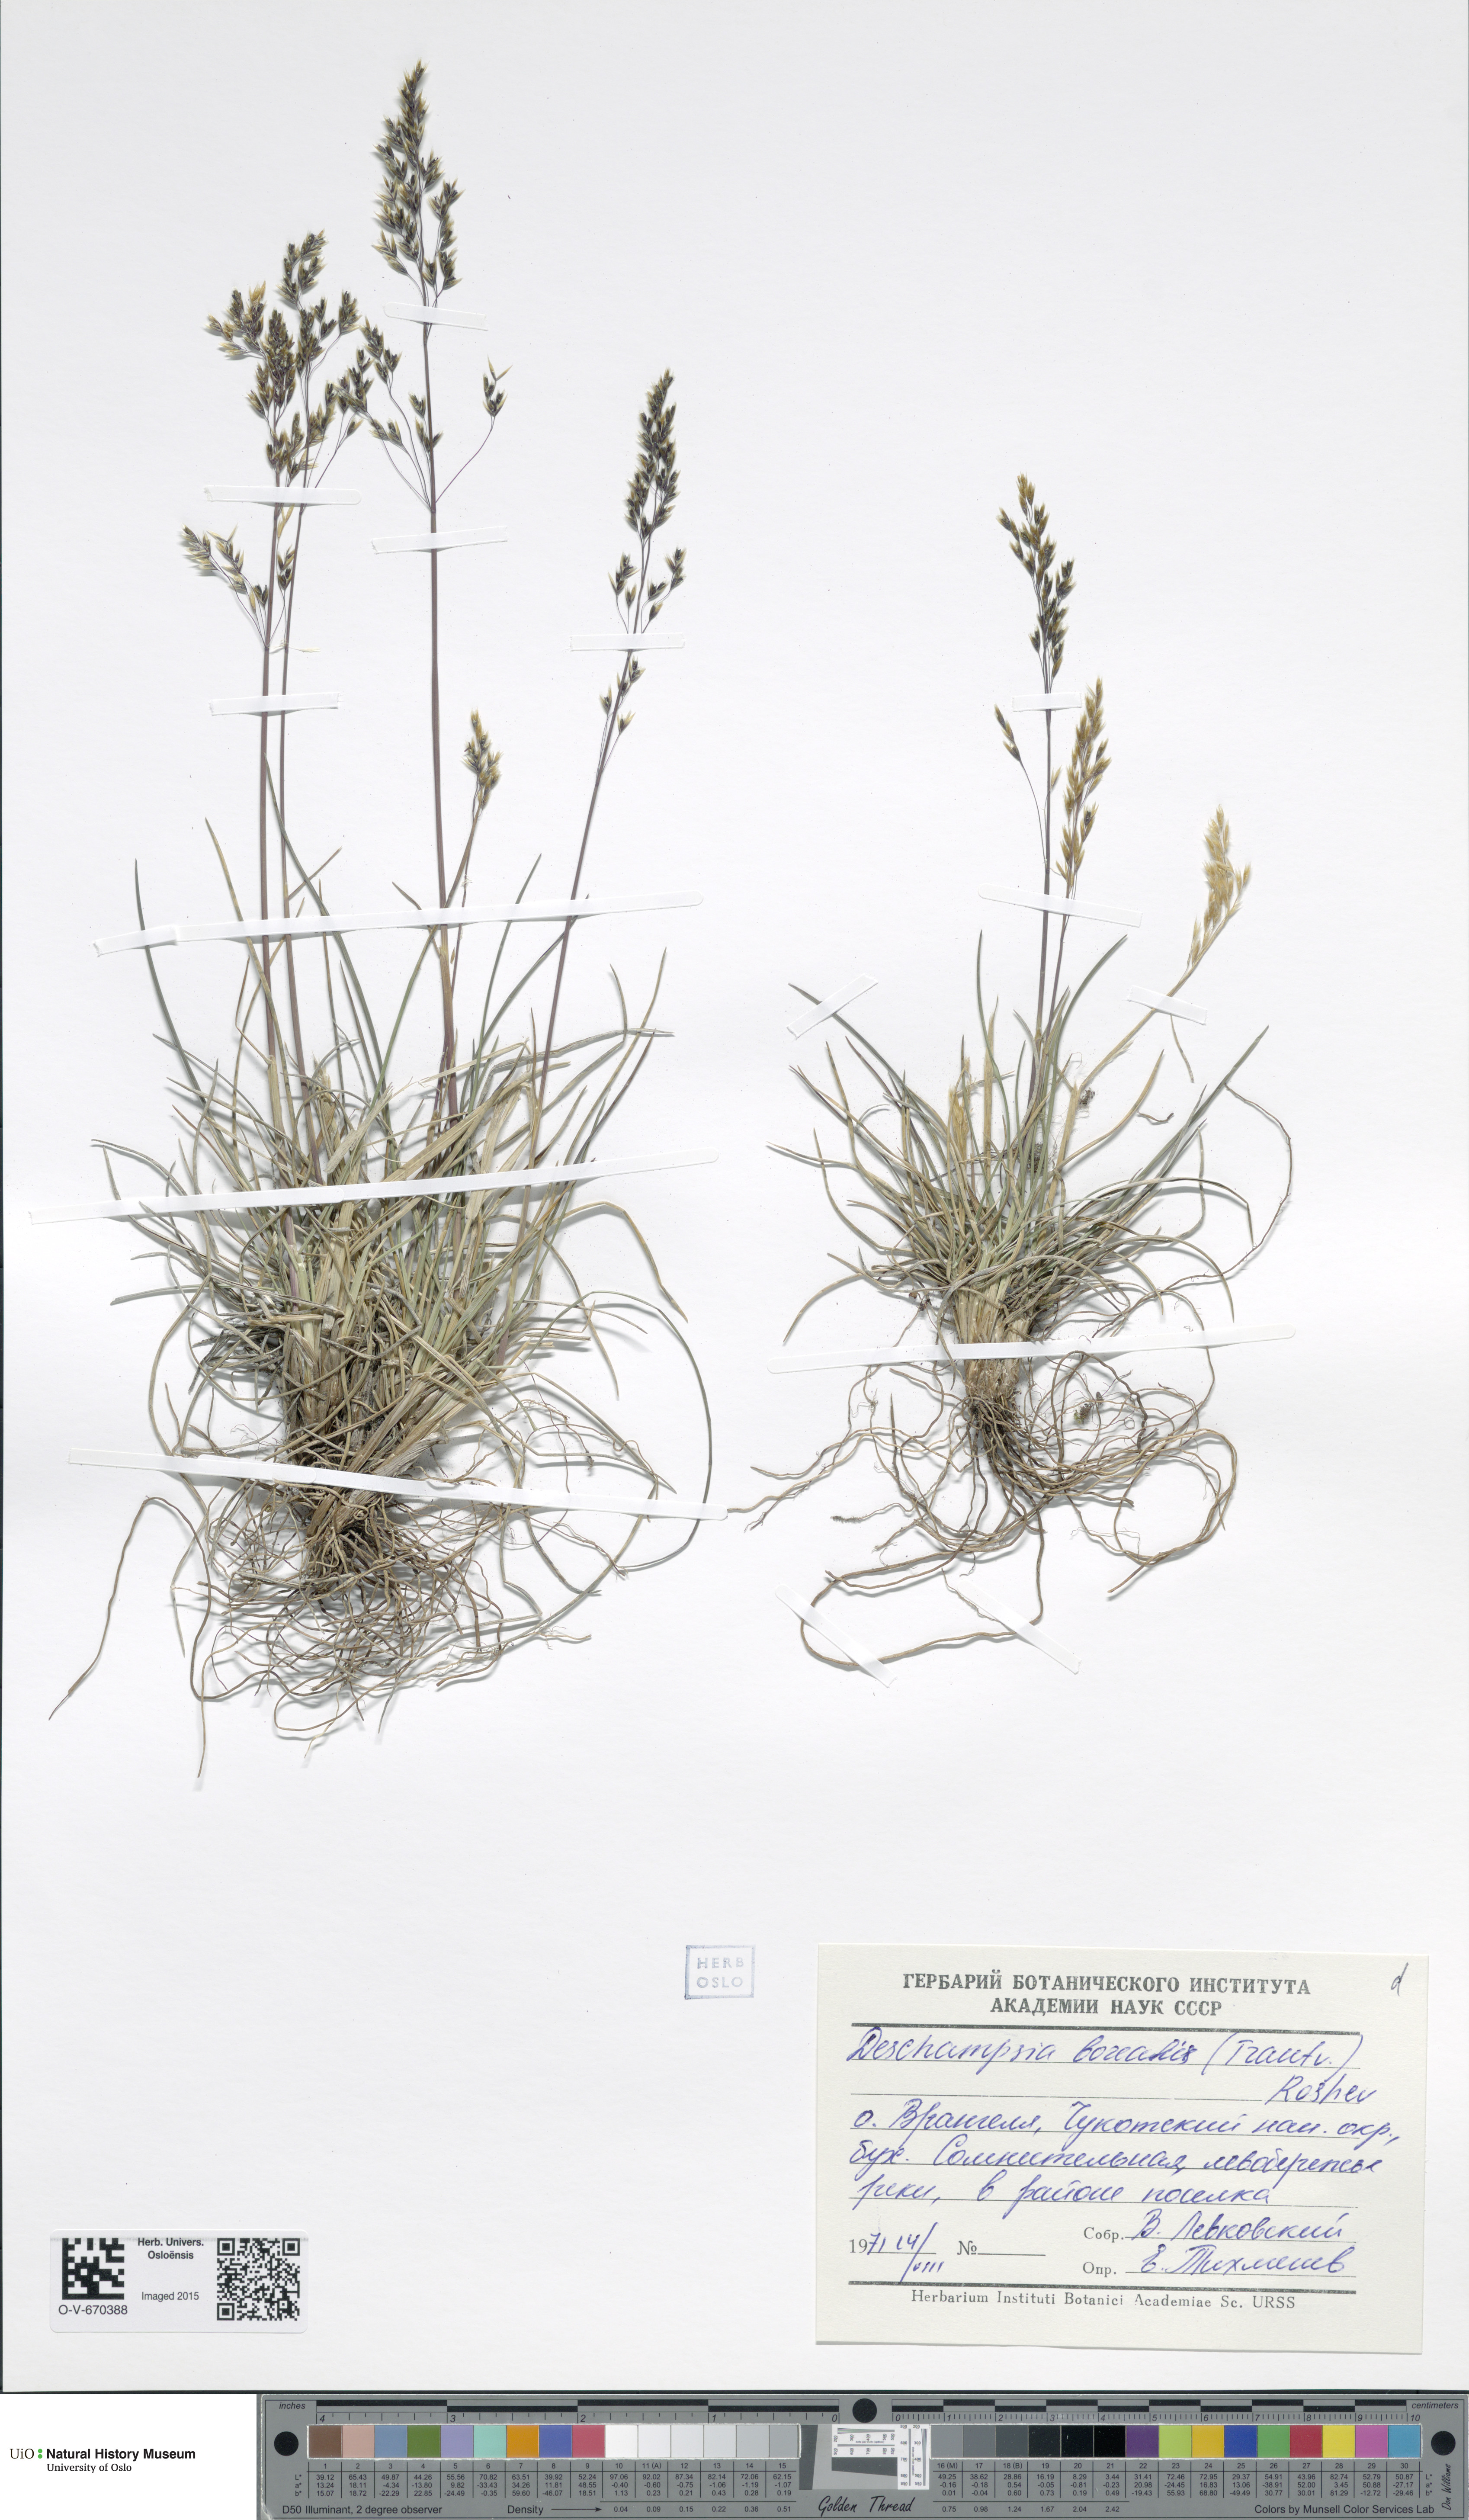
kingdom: Plantae
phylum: Tracheophyta
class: Liliopsida
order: Poales
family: Poaceae
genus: Deschampsia
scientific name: Deschampsia cespitosa
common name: Tufted hair-grass
